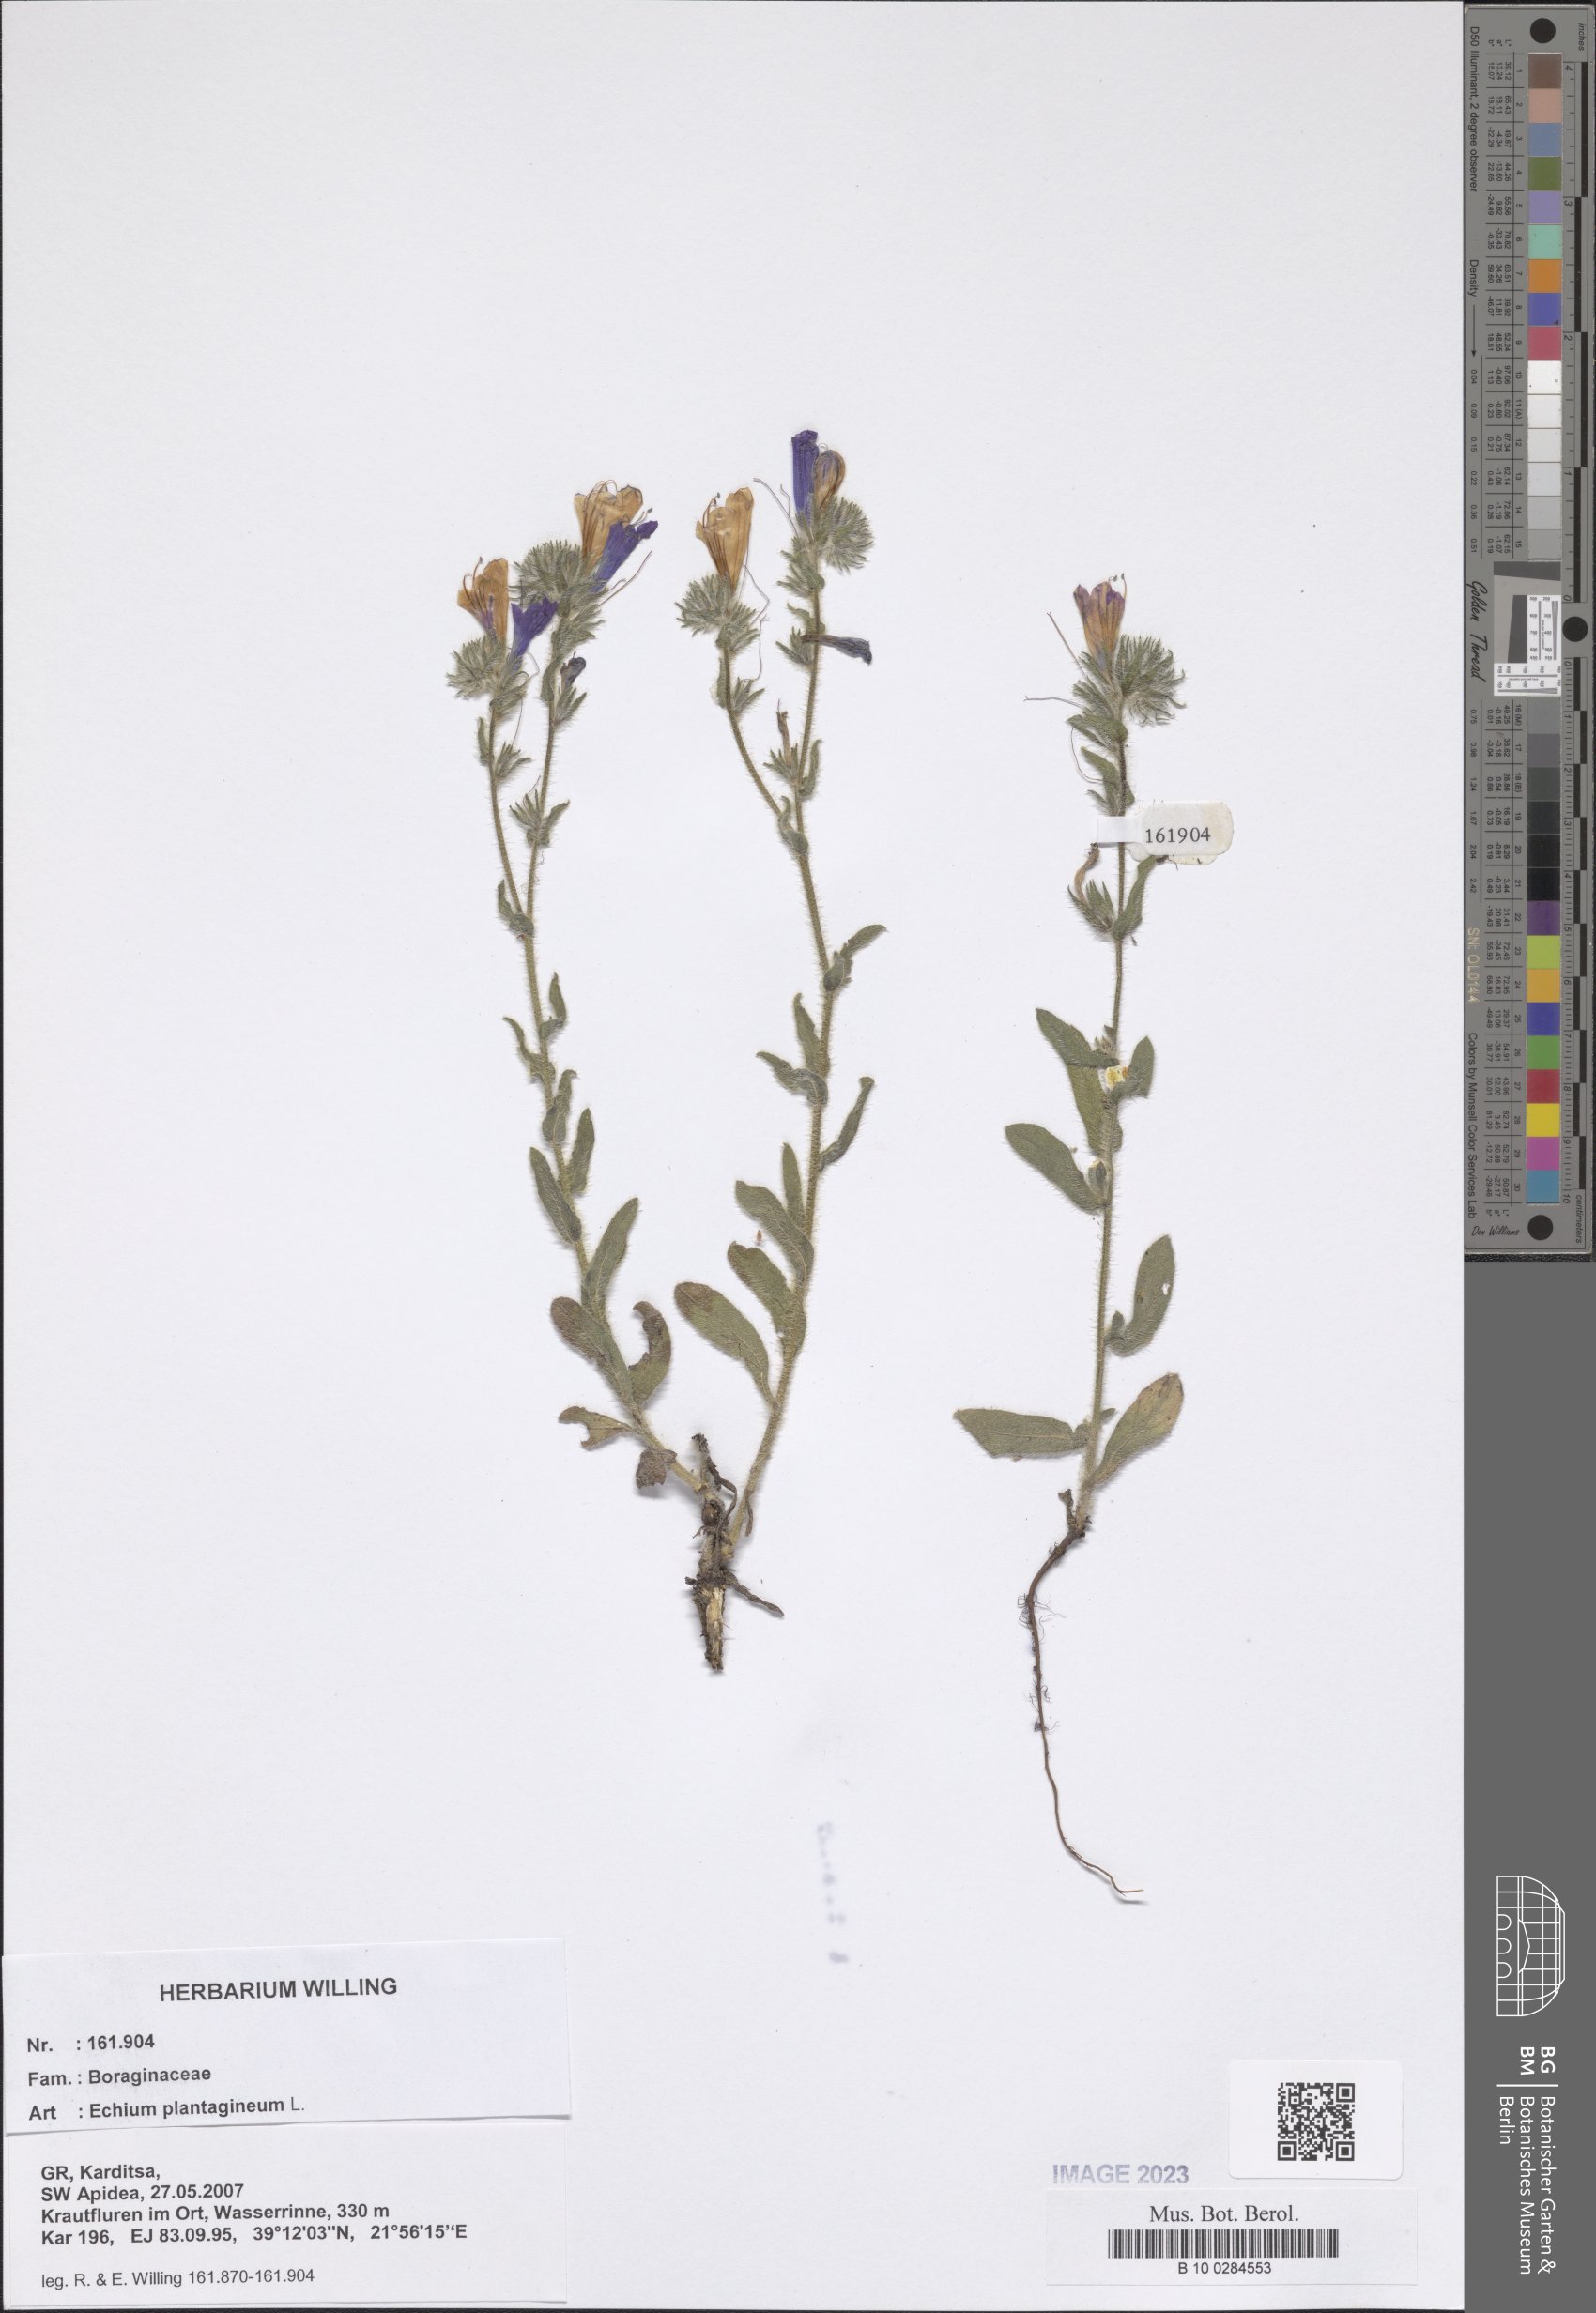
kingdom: Plantae
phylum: Tracheophyta
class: Magnoliopsida
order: Boraginales
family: Boraginaceae
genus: Echium
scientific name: Echium plantagineum
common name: Purple viper's-bugloss
